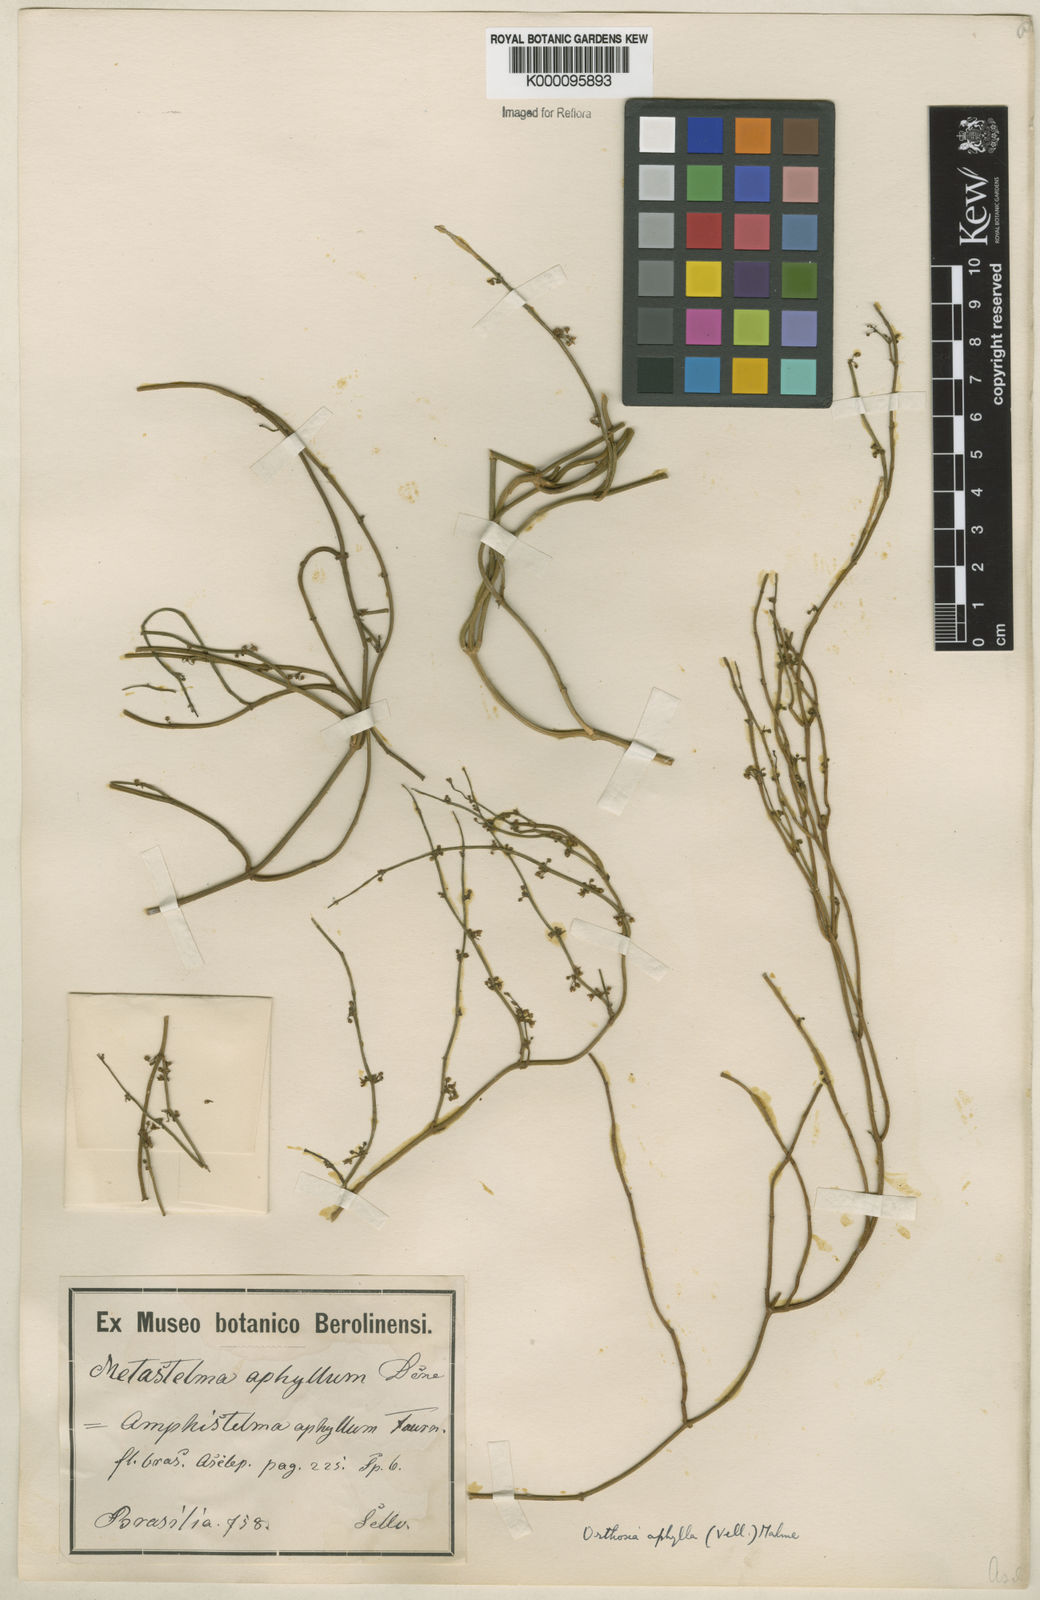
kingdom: Plantae
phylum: Tracheophyta
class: Magnoliopsida
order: Gentianales
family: Apocynaceae
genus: Orthosia
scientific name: Orthosia scoparia
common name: Leafless swallow-wort
